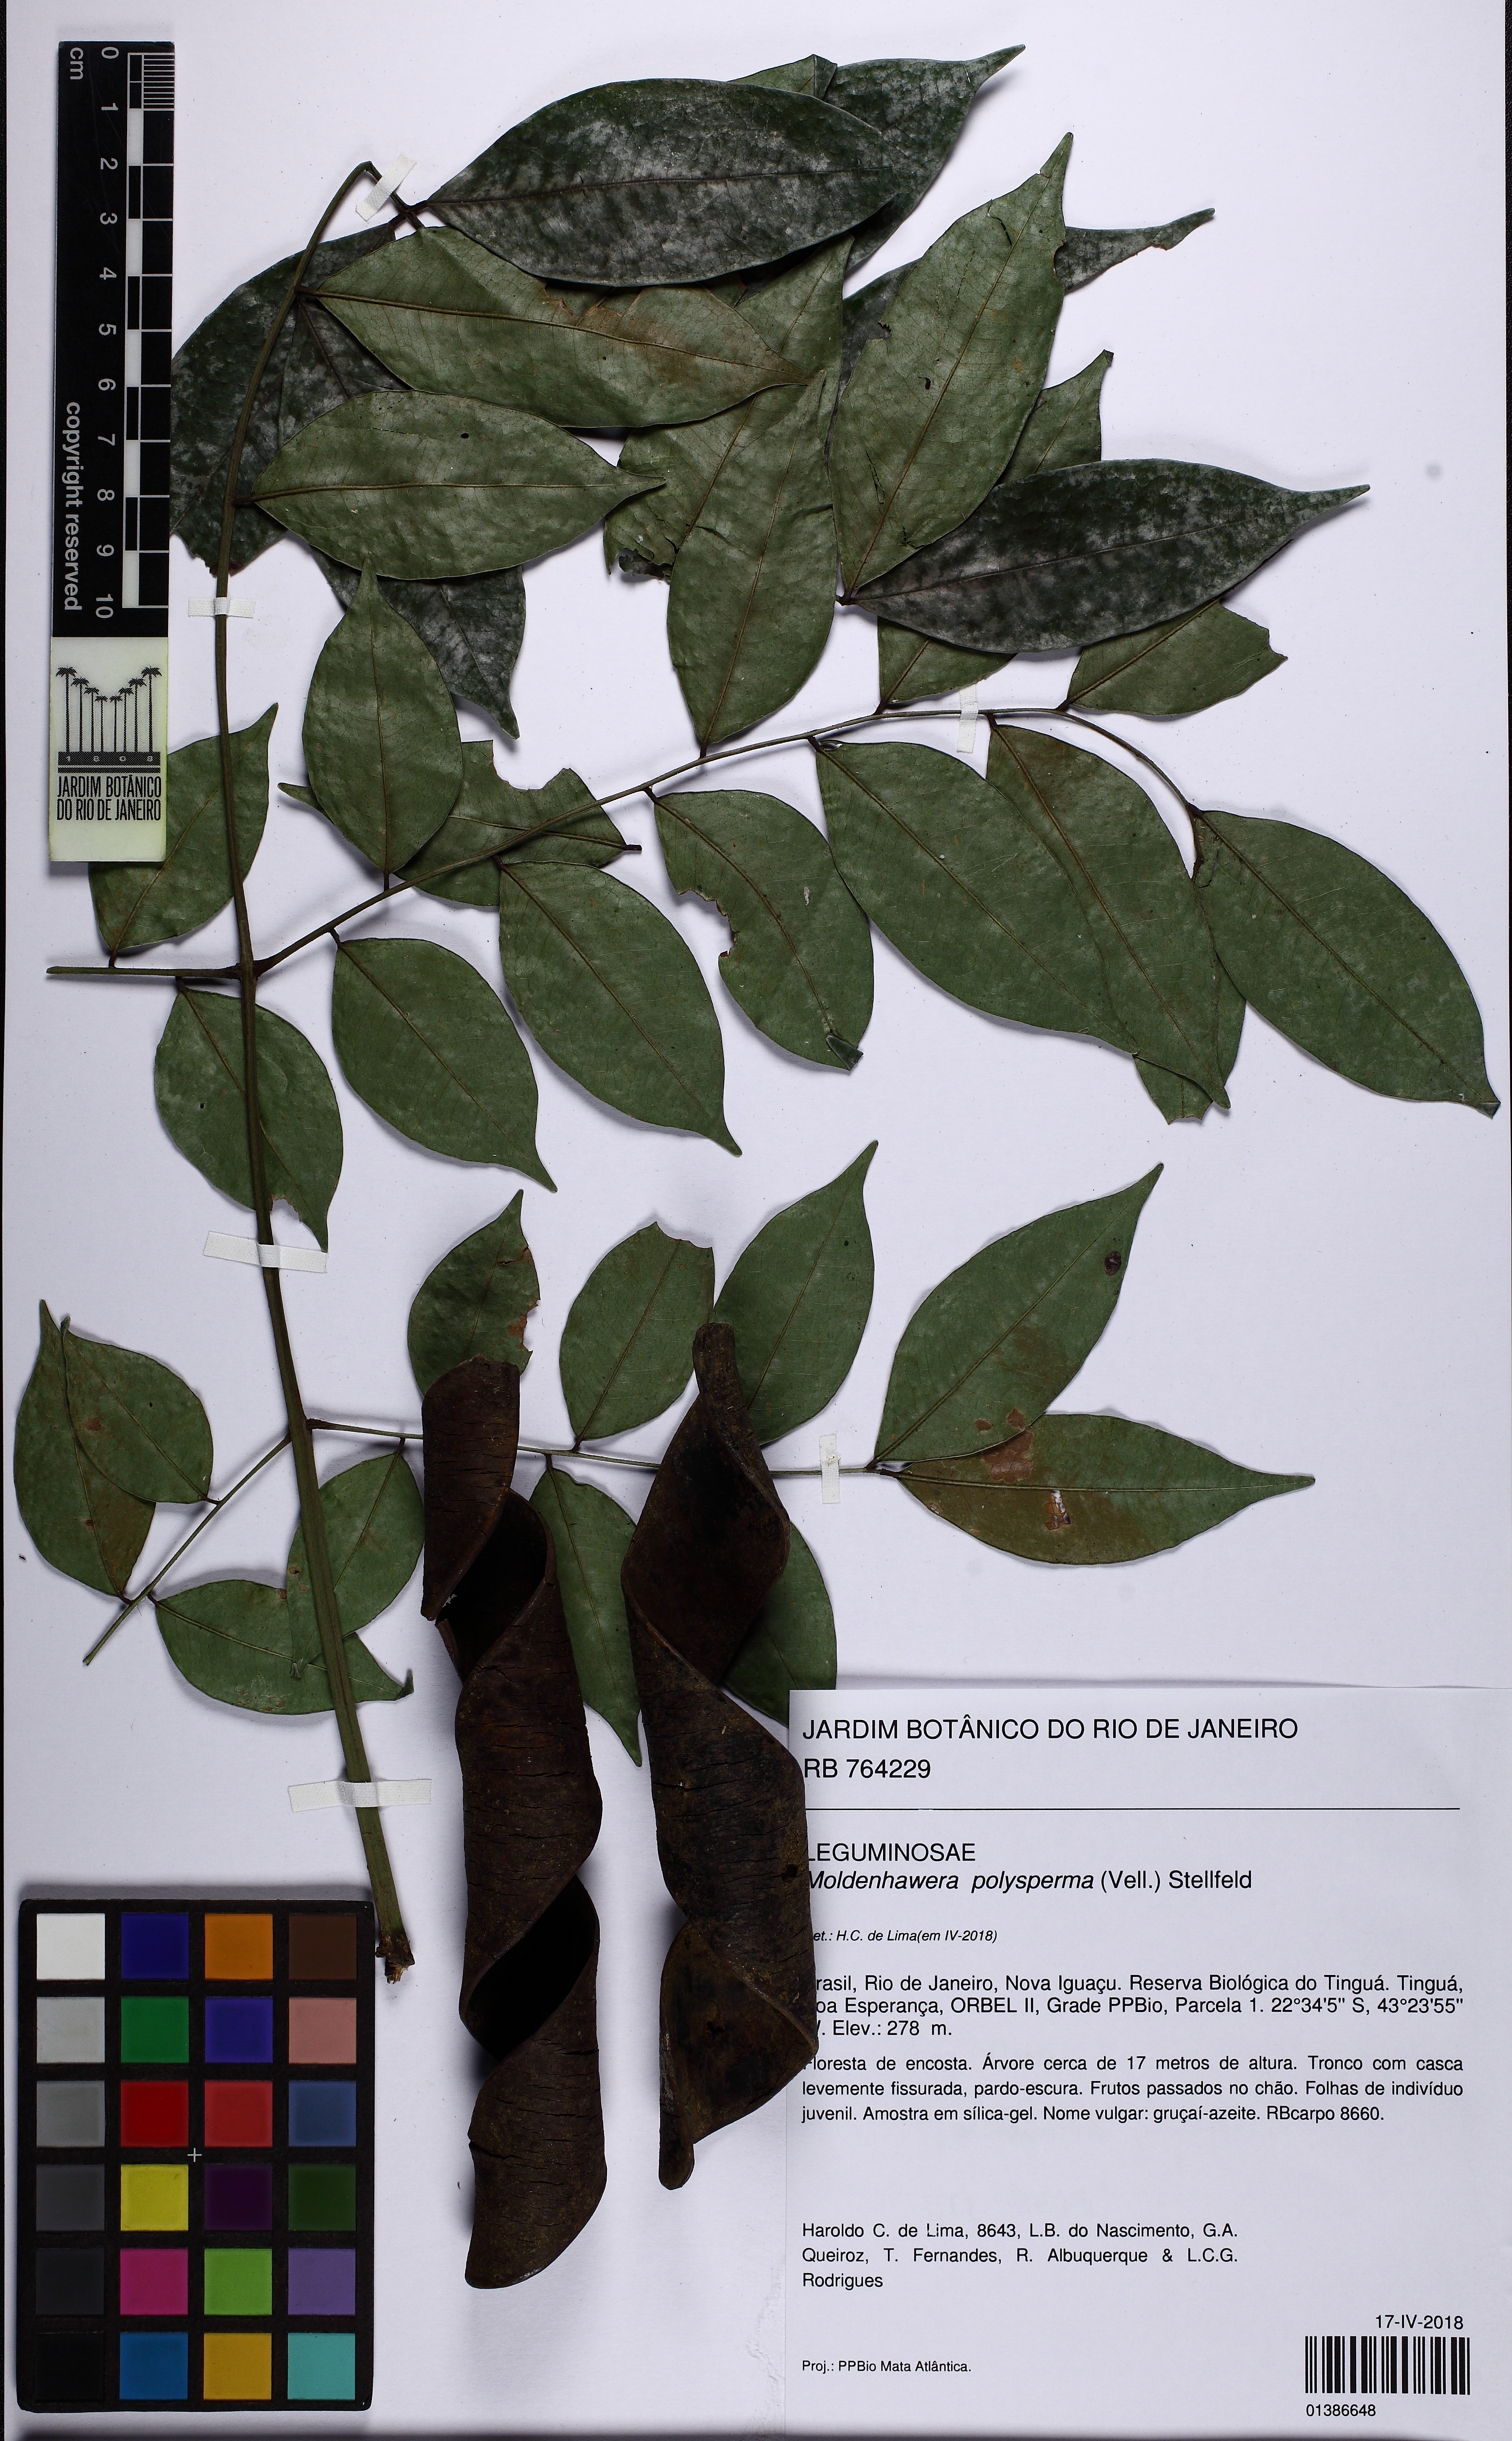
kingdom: Plantae
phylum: Tracheophyta
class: Magnoliopsida
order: Fabales
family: Fabaceae
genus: Moldenhawera
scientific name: Moldenhawera polysperma
